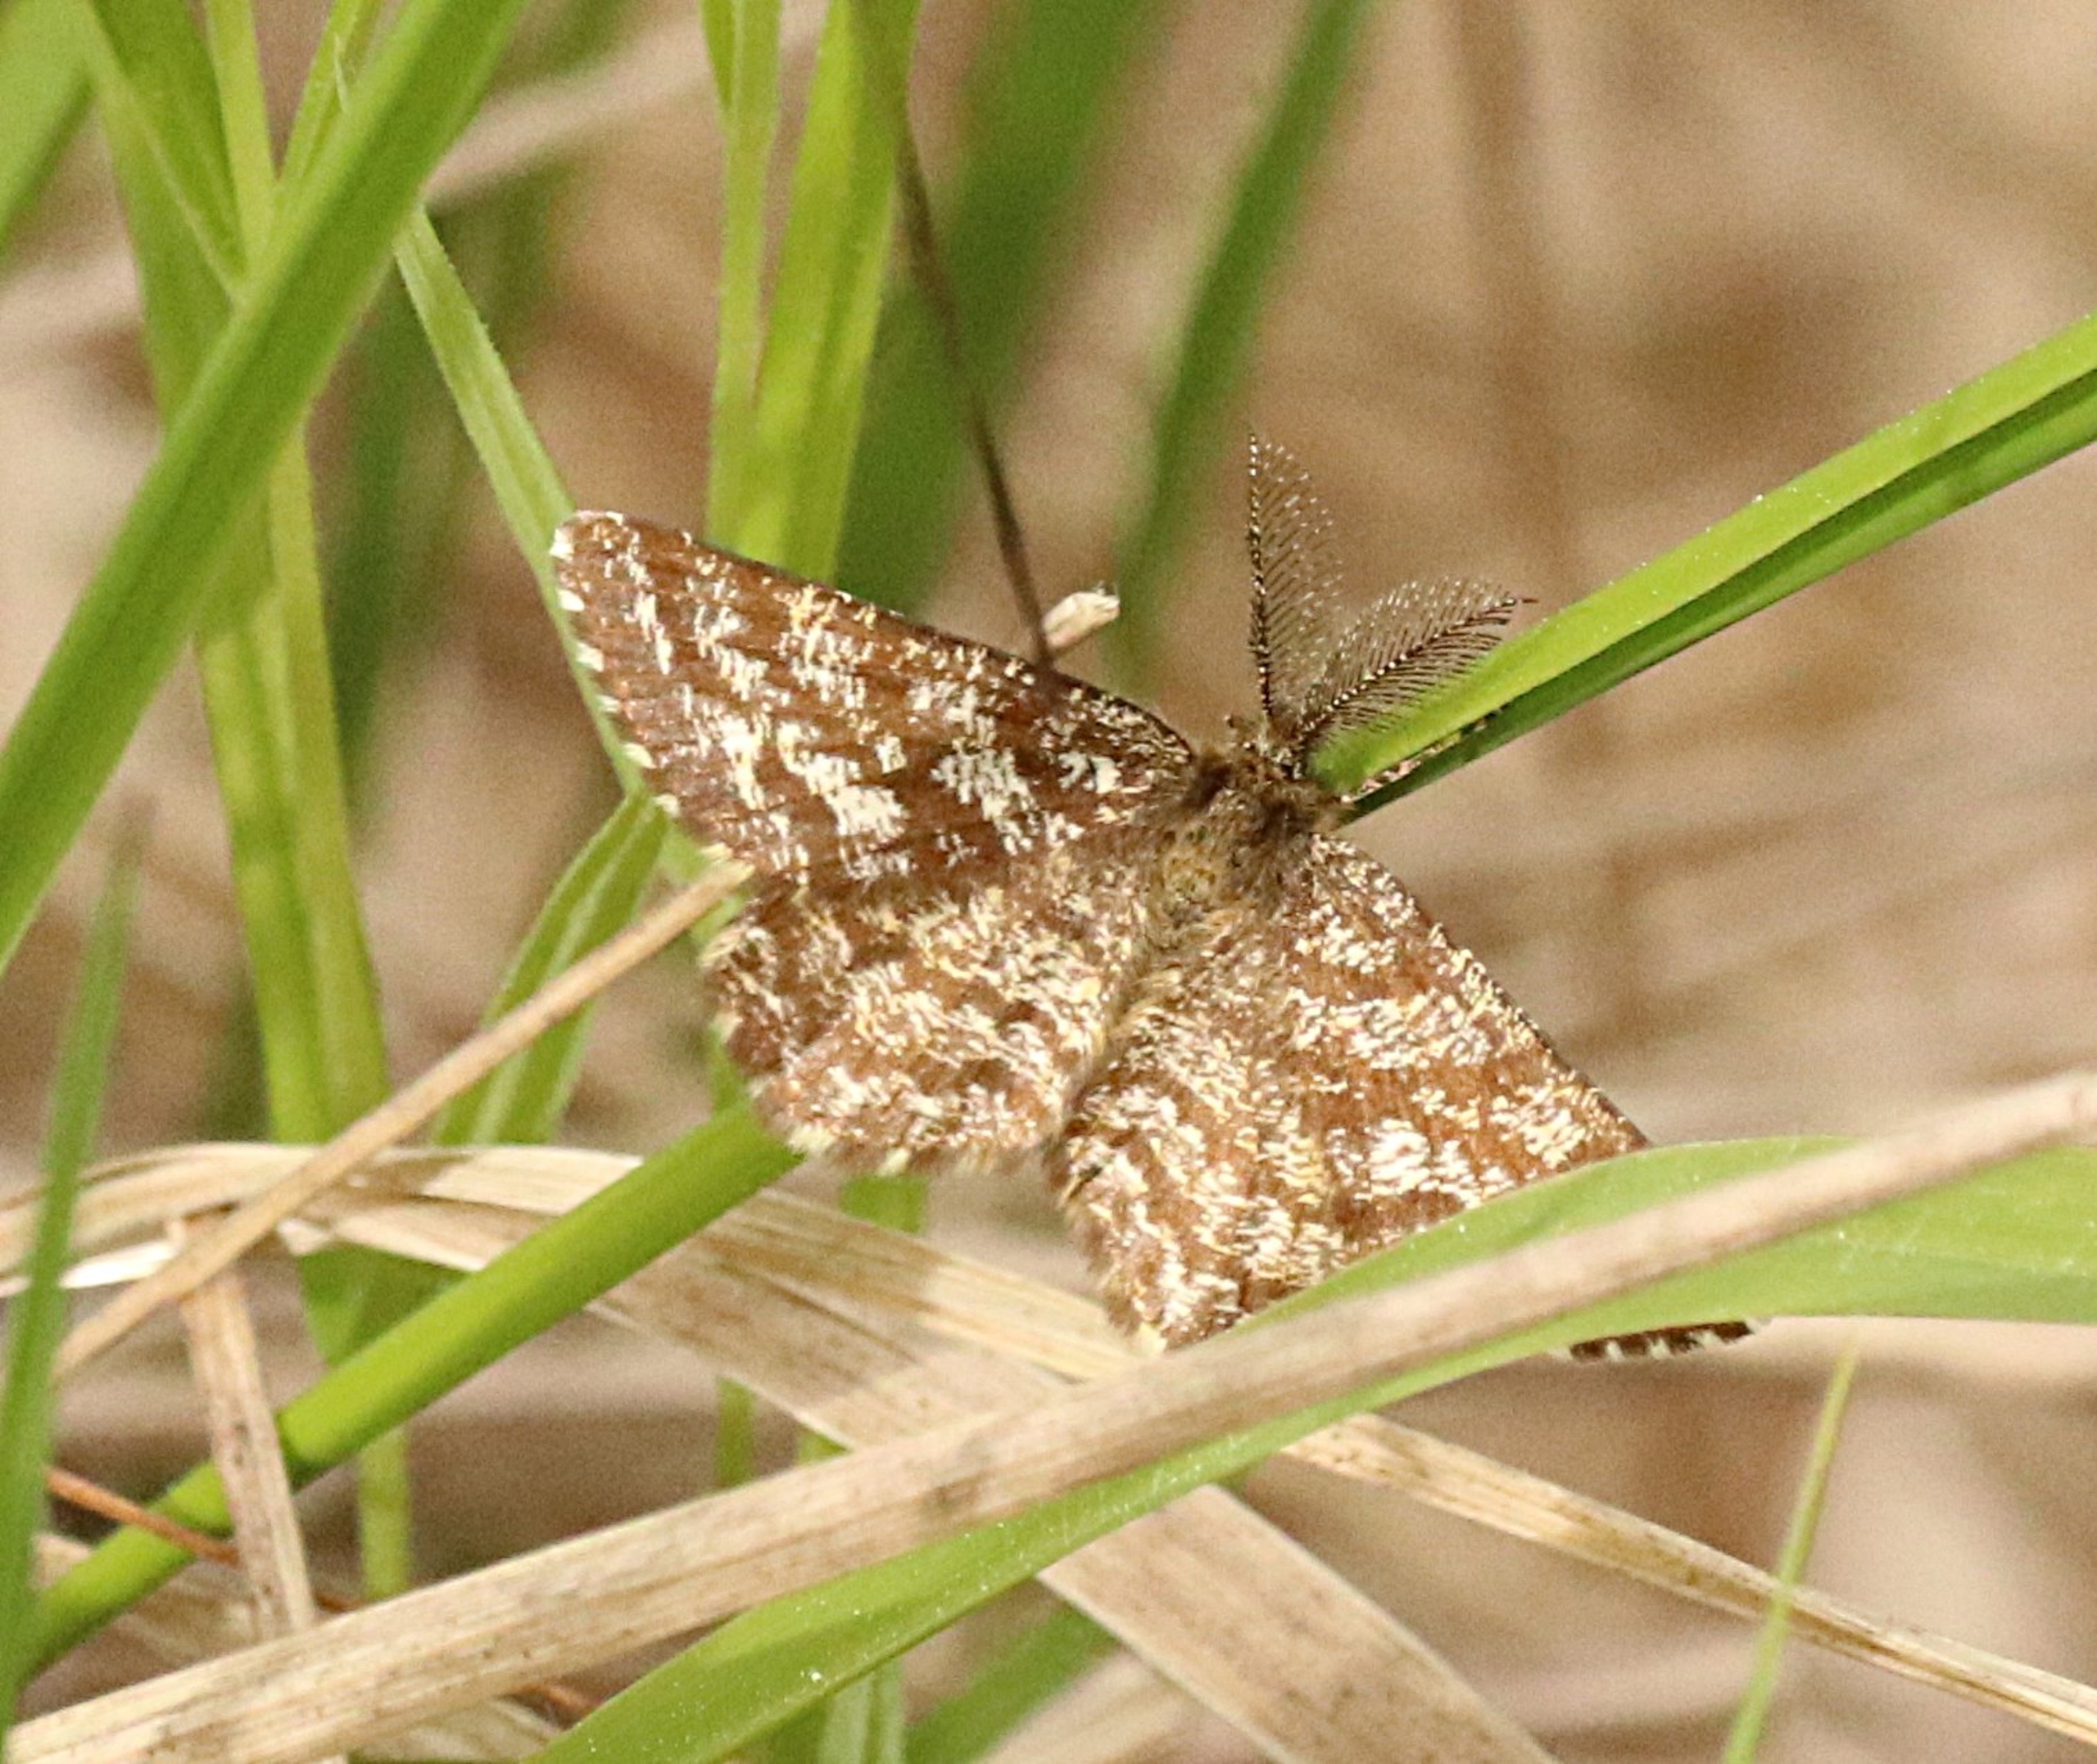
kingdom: Animalia
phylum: Arthropoda
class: Insecta
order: Lepidoptera
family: Geometridae
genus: Ematurga
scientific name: Ematurga atomaria
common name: Lyngmåler
